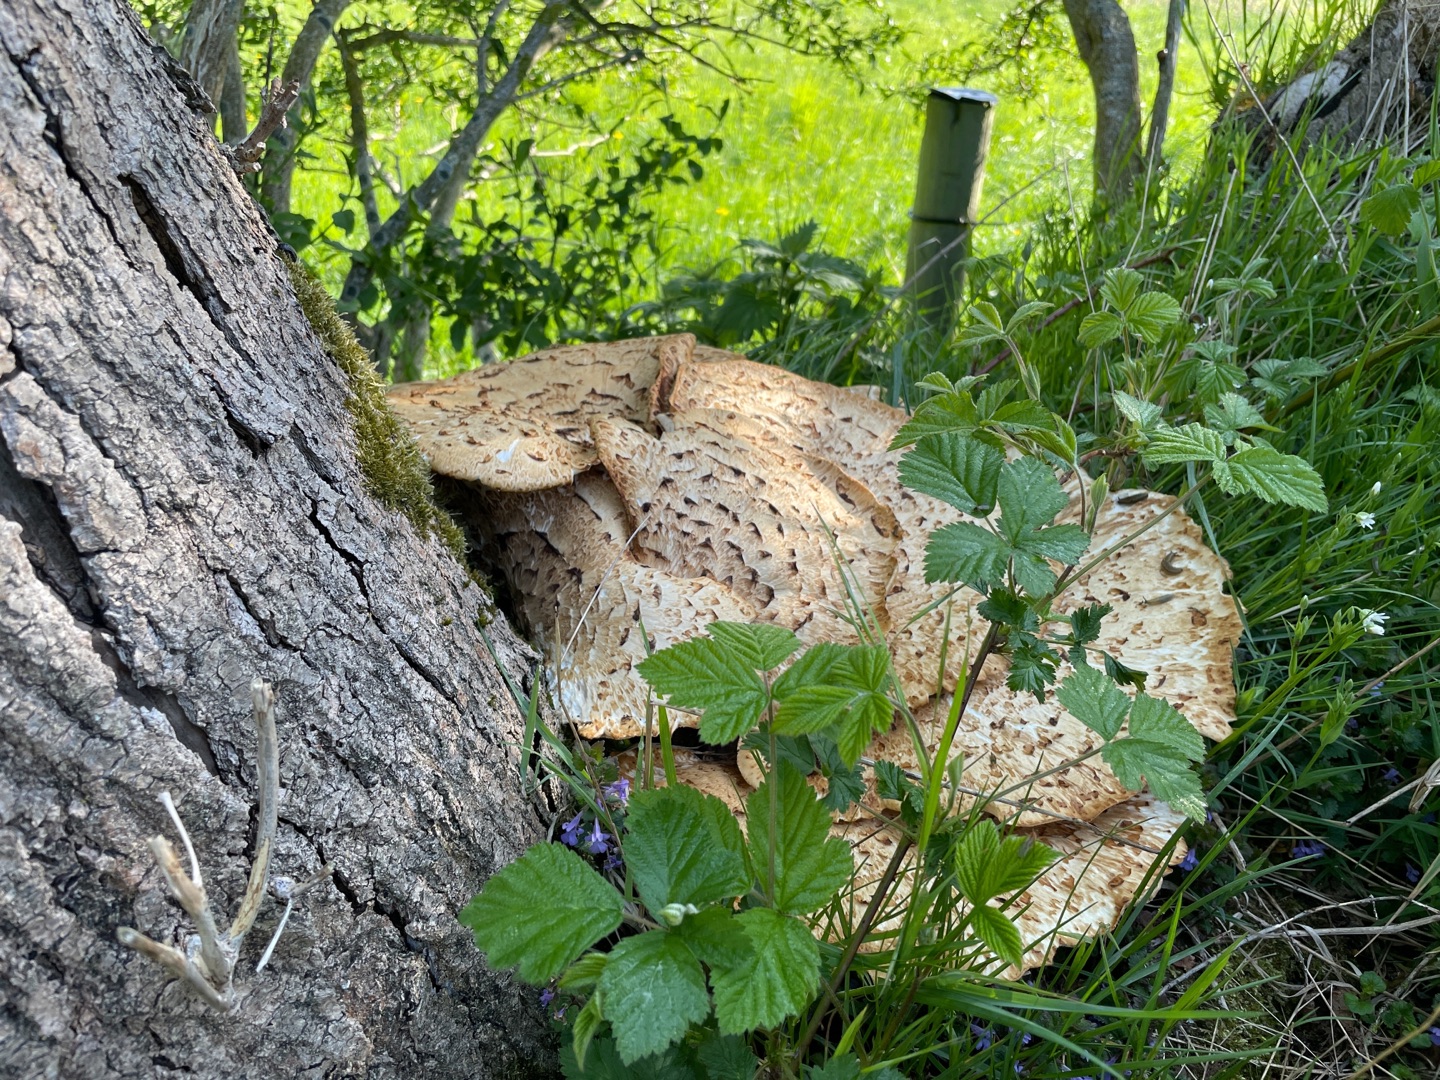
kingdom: Fungi
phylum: Basidiomycota
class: Agaricomycetes
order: Polyporales
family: Polyporaceae
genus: Cerioporus
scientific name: Cerioporus squamosus
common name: Skællet stilkporesvamp
